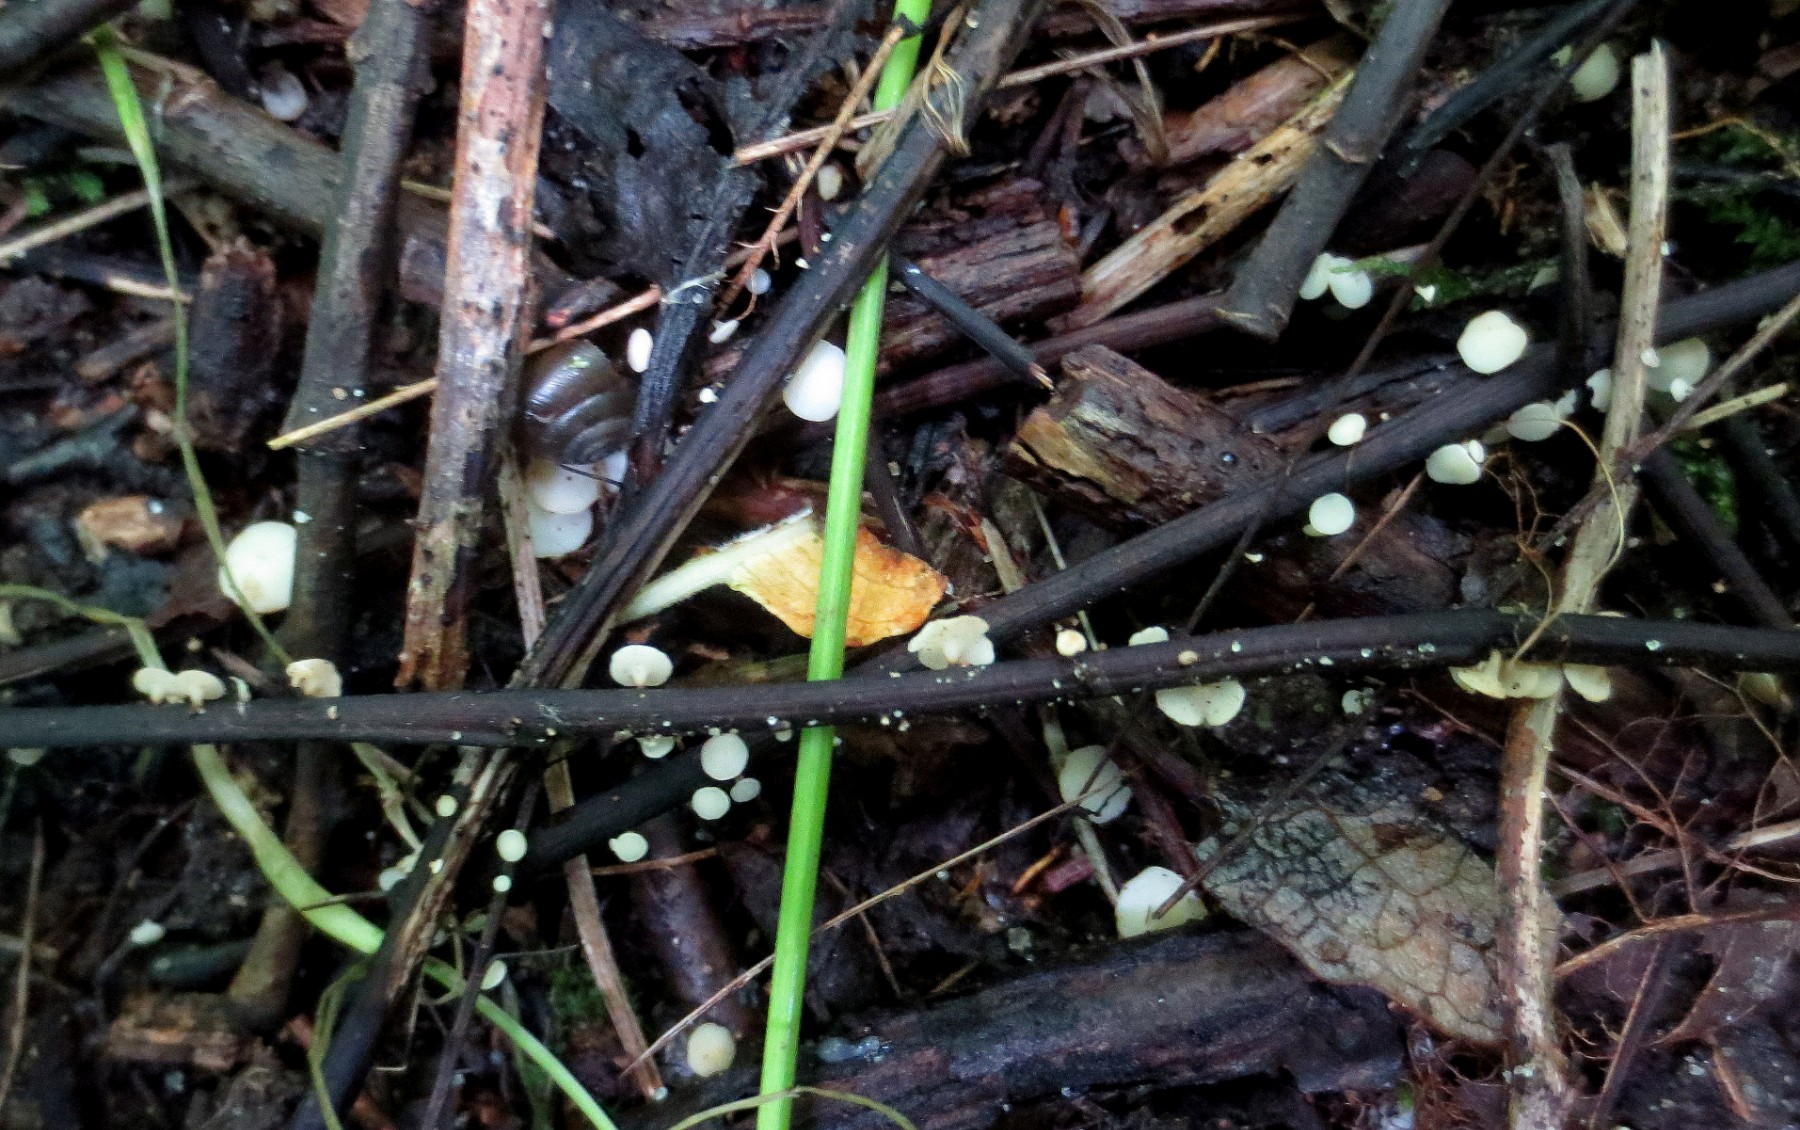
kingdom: Fungi
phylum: Ascomycota
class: Leotiomycetes
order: Helotiales
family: Helotiaceae
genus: Hymenoscyphus
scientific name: Hymenoscyphus fraxineus
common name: asketoptørre-stilkskive
